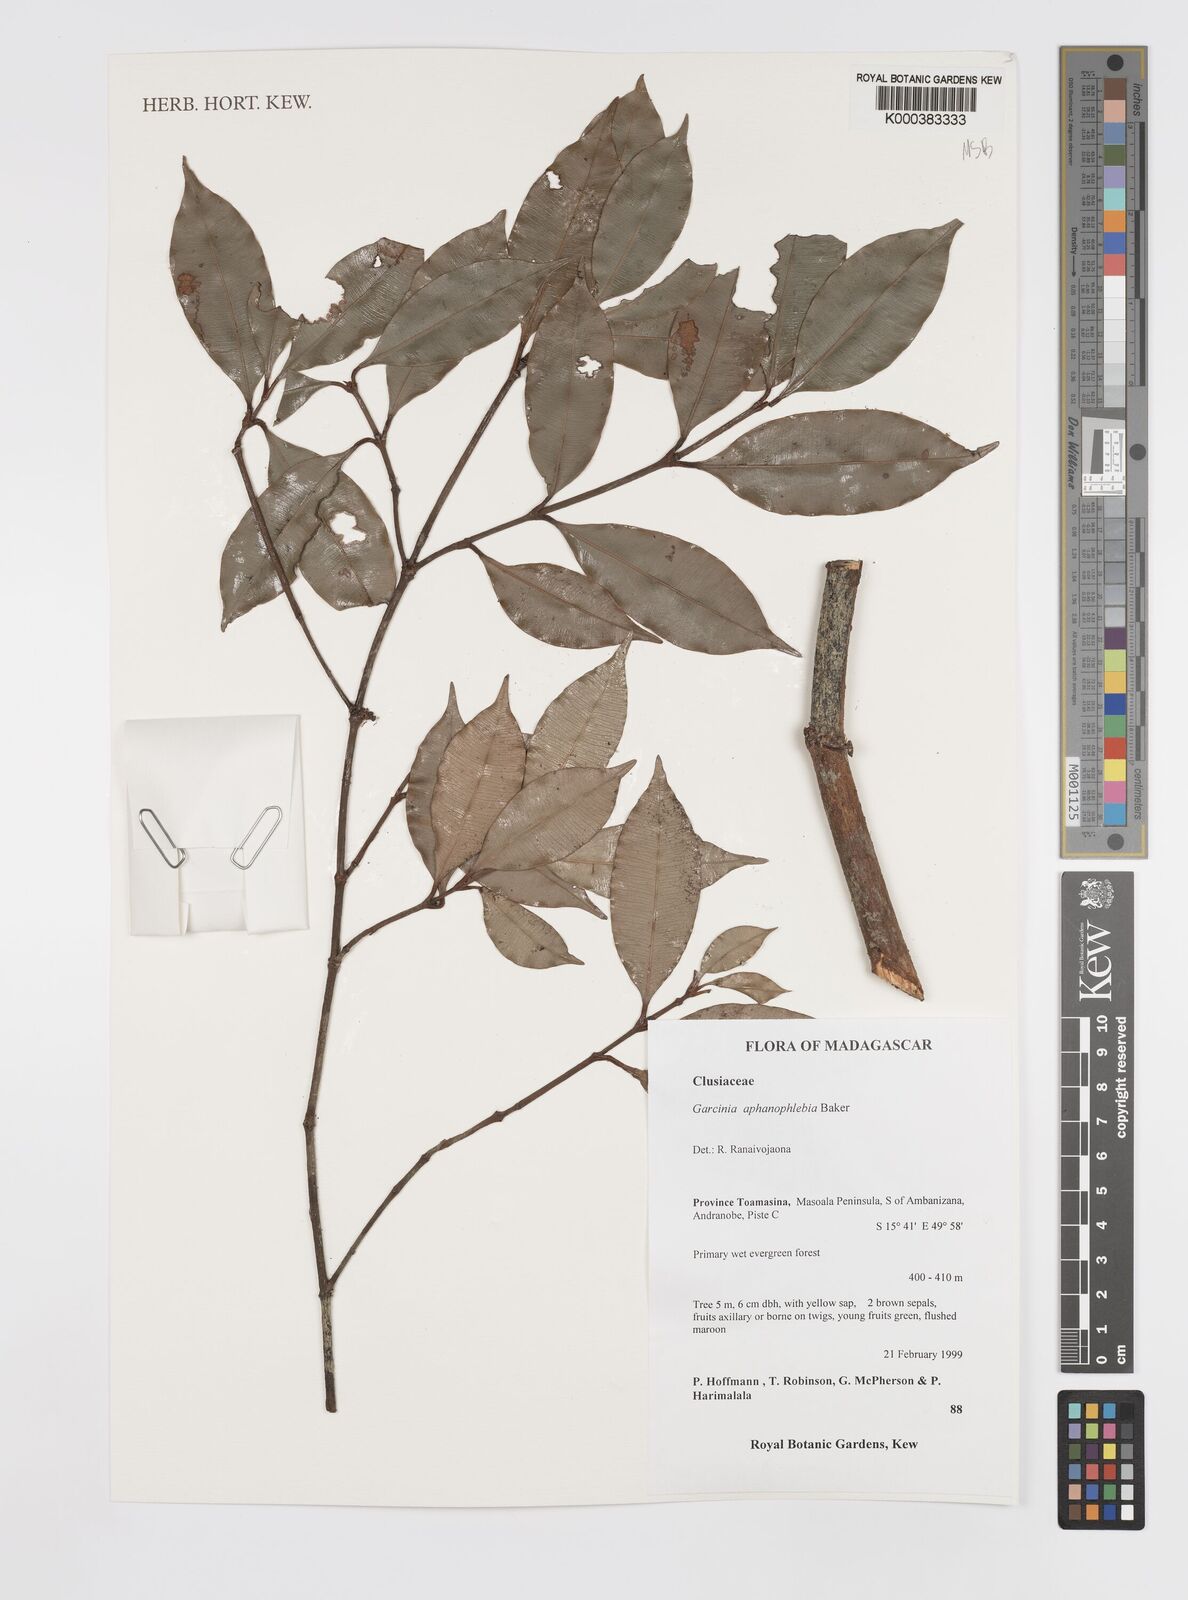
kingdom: Plantae
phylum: Tracheophyta
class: Magnoliopsida
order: Malpighiales
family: Clusiaceae
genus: Garcinia
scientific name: Garcinia
